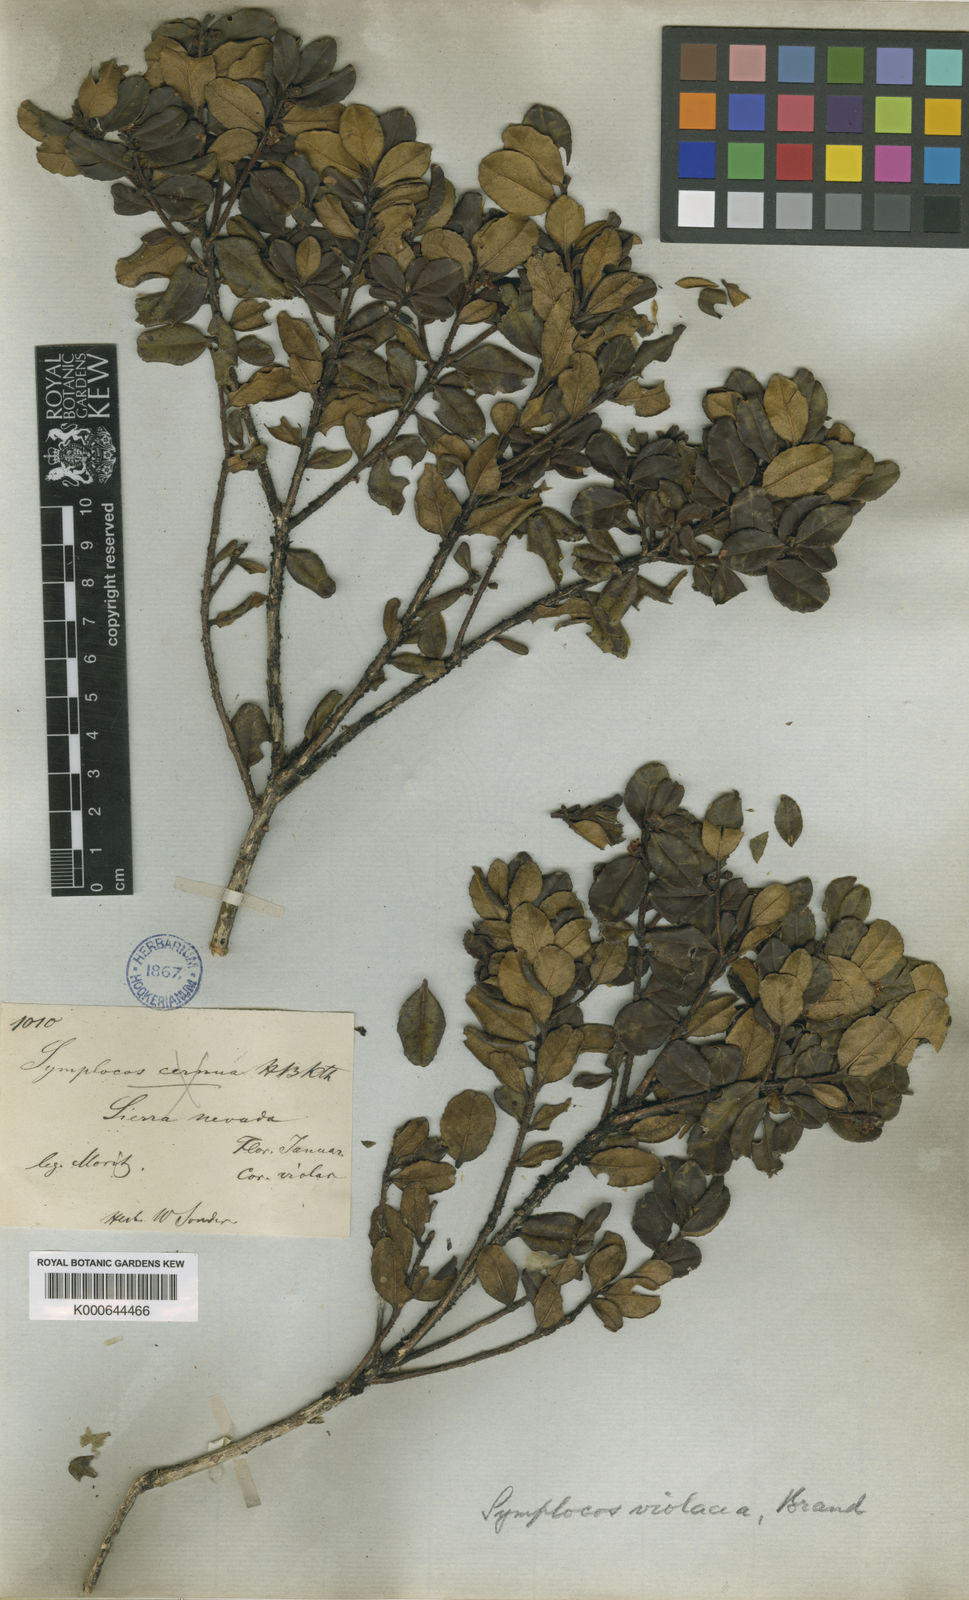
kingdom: Plantae
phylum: Tracheophyta
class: Magnoliopsida
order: Ericales
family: Symplocaceae
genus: Symplocos
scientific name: Symplocos violacea
